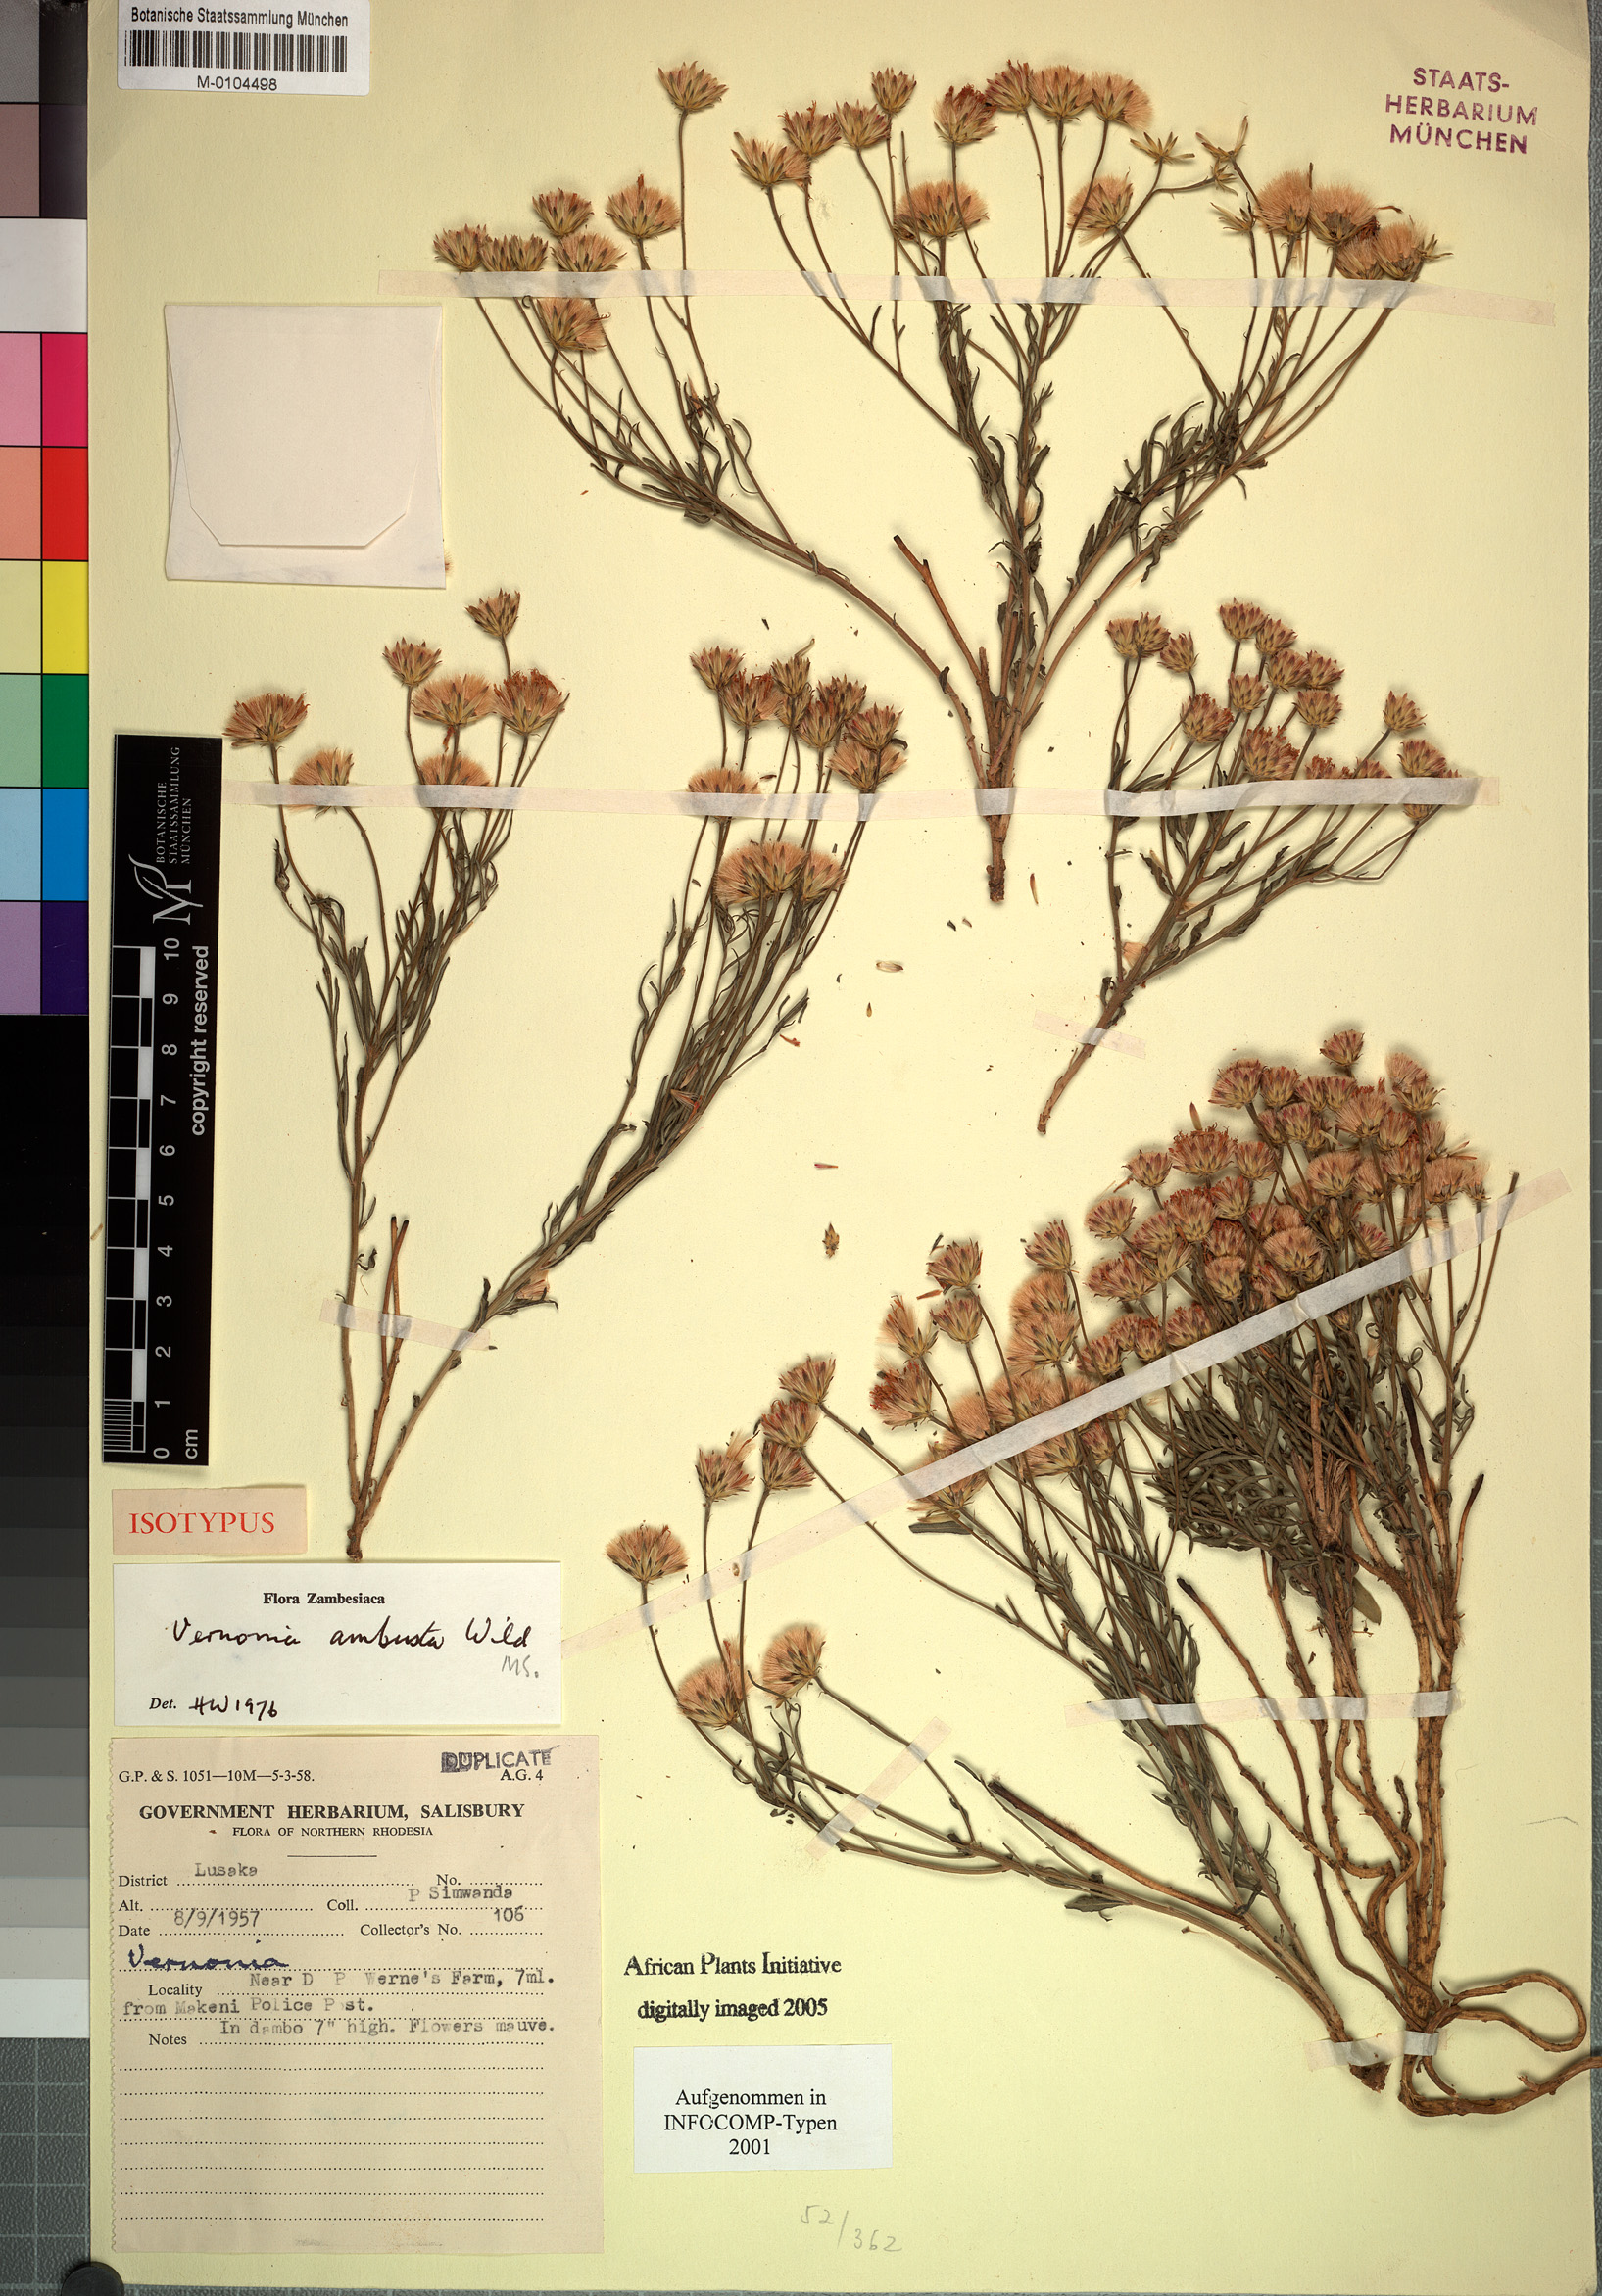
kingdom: Plantae
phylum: Tracheophyta
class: Magnoliopsida
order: Asterales
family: Asteraceae
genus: Vernonia
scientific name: Vernonia schweinfurthii
